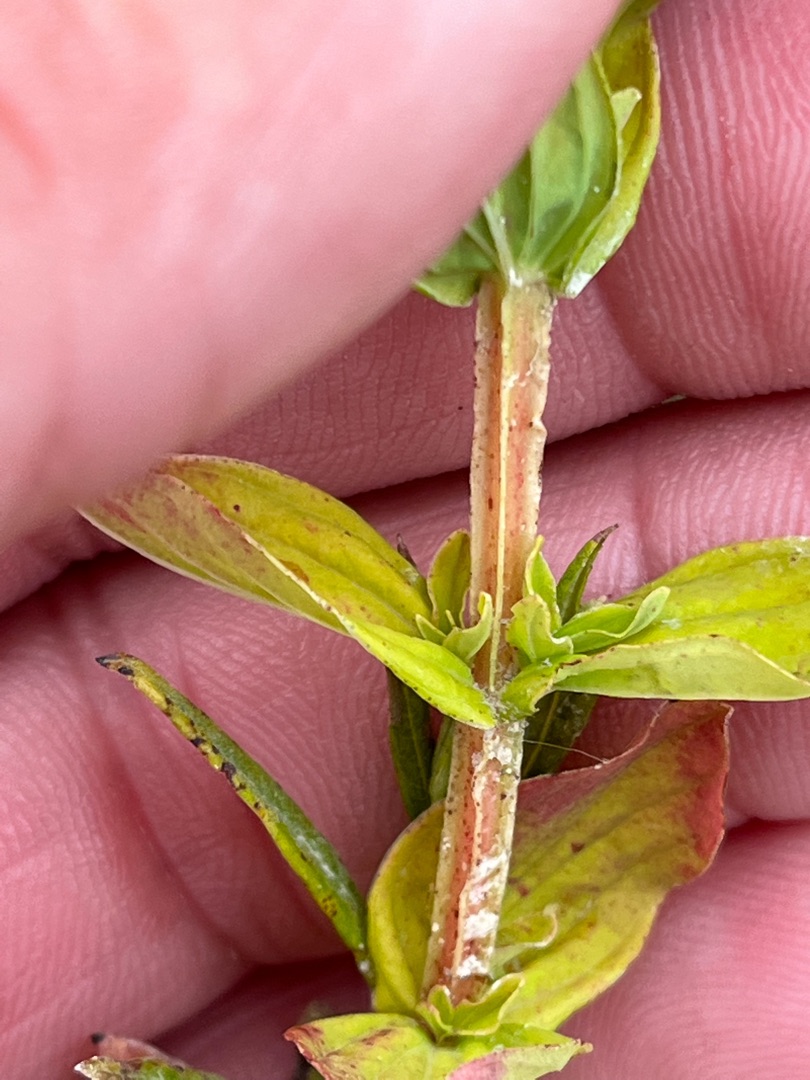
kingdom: Plantae
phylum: Tracheophyta
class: Magnoliopsida
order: Malpighiales
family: Hypericaceae
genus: Hypericum
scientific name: Hypericum tetrapterum
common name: Vinget perikon
